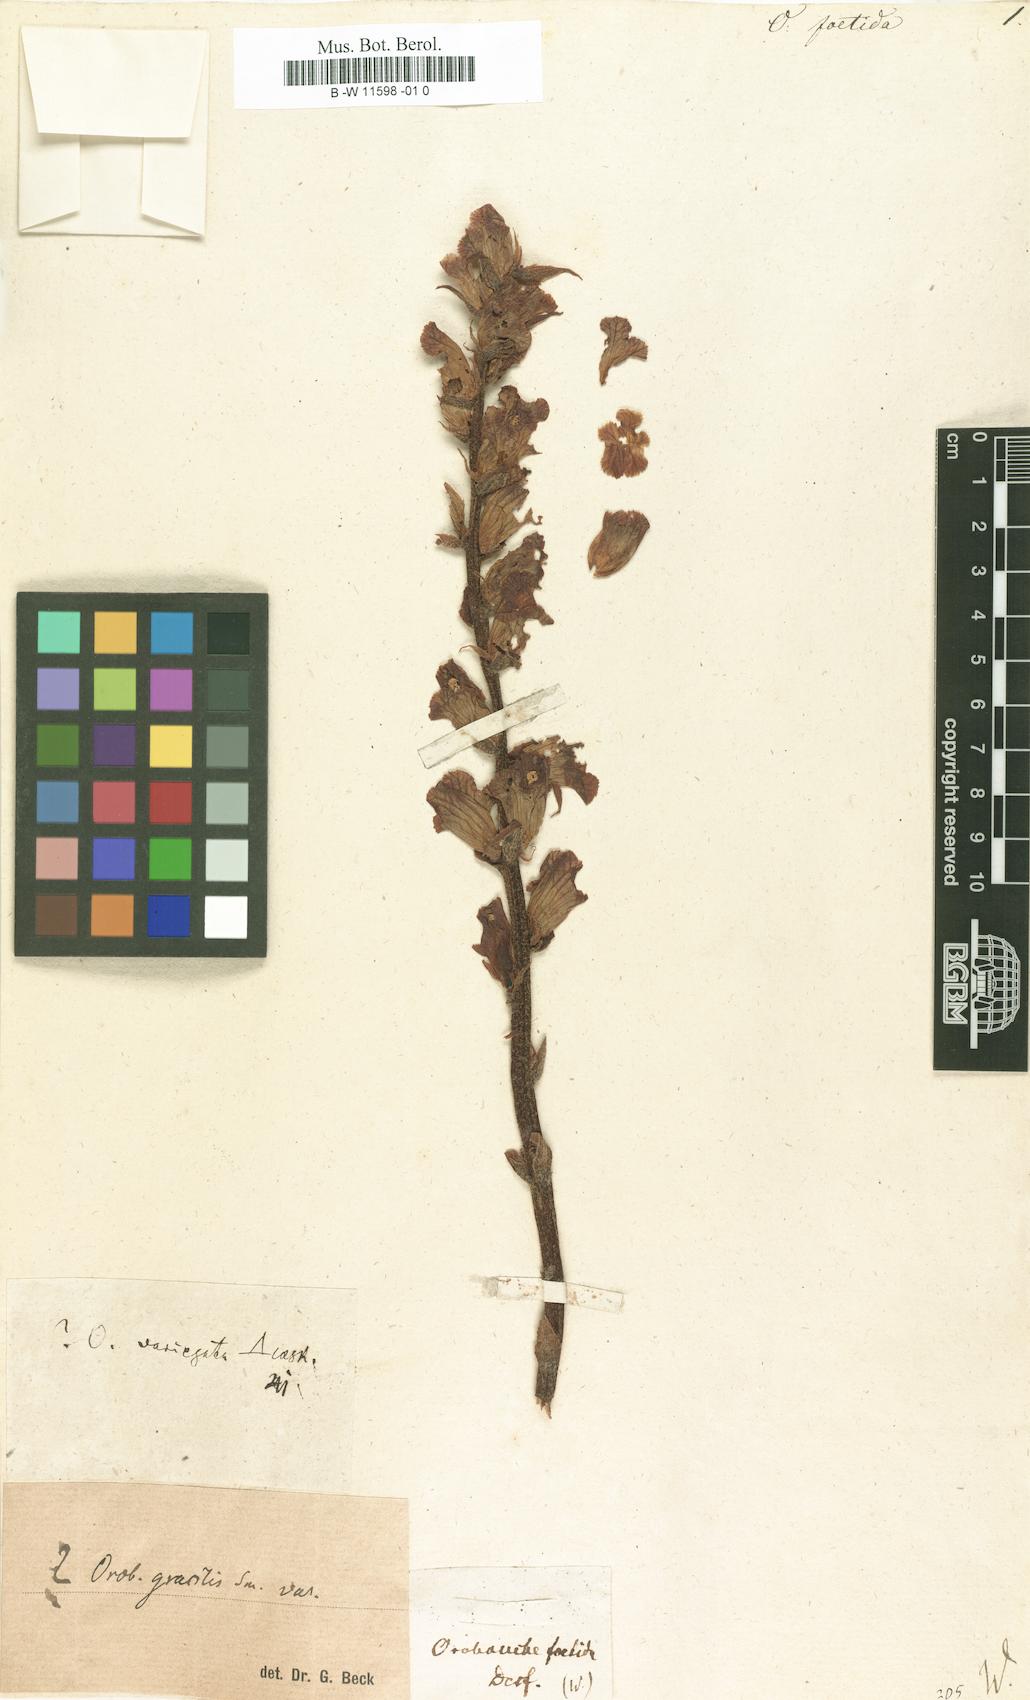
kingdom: Plantae
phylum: Tracheophyta
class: Magnoliopsida
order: Lamiales
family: Orobanchaceae
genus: Orobanche
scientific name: Orobanche foetida
